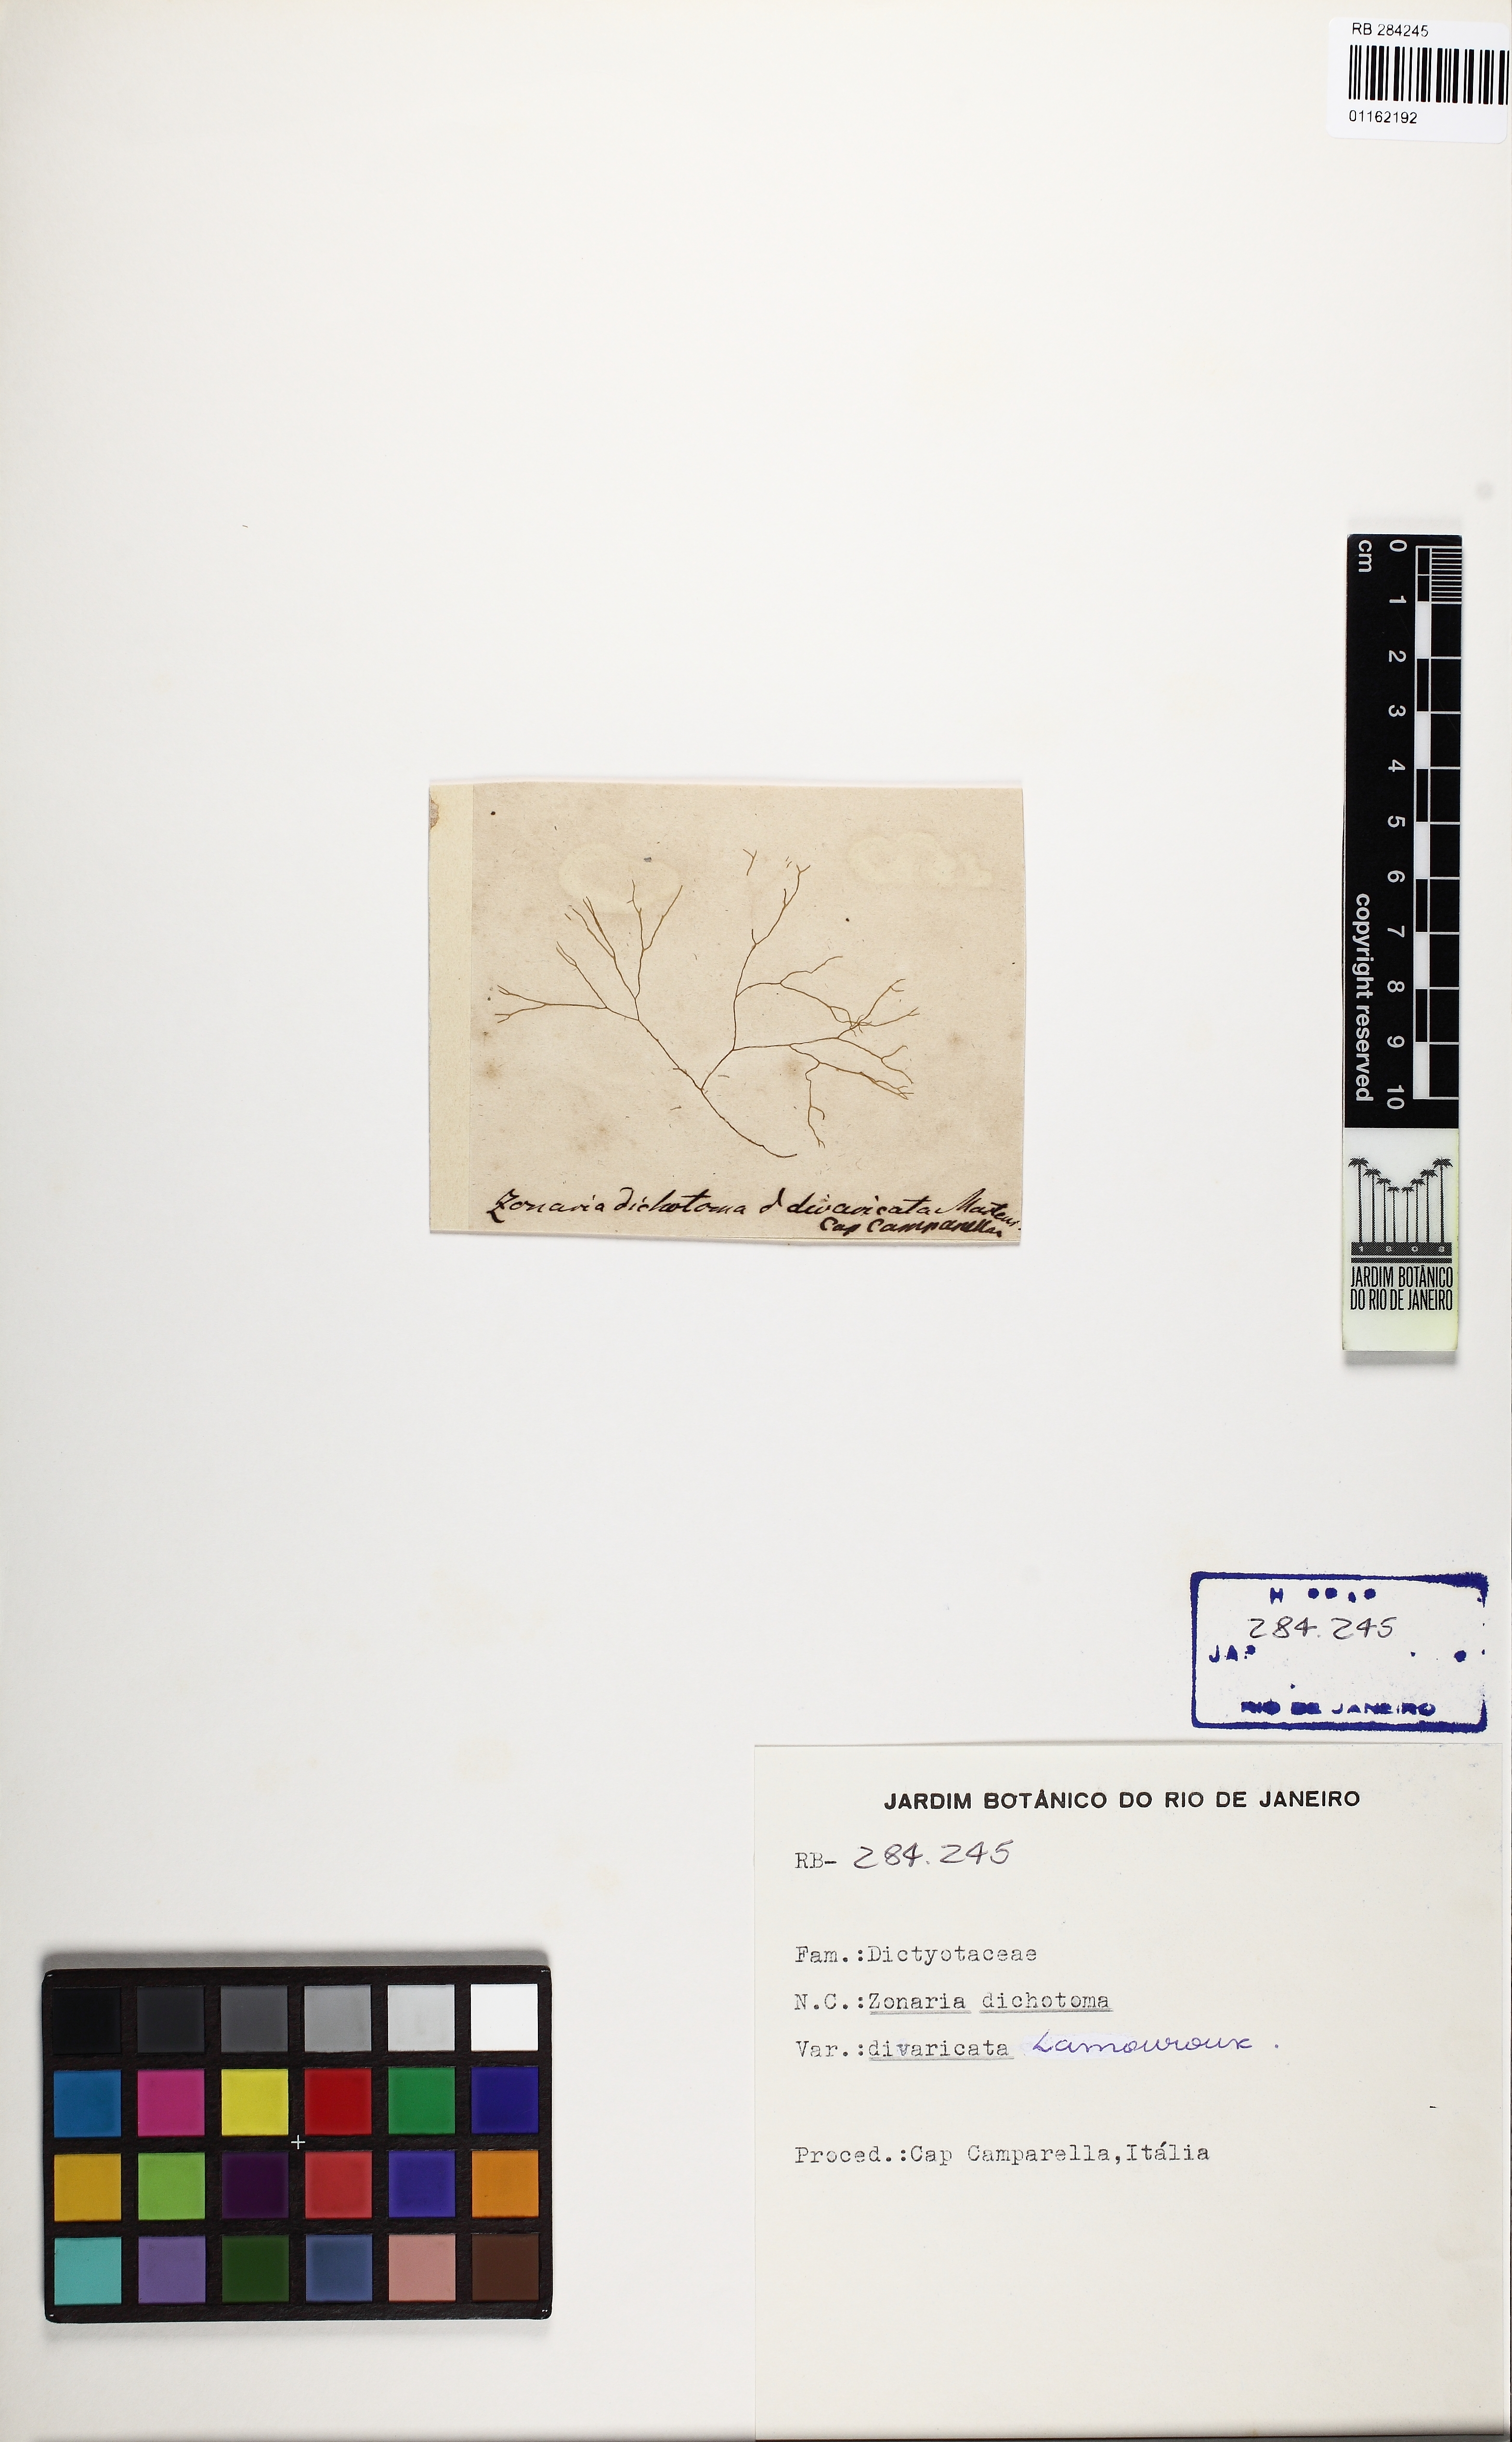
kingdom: Chromista
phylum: Ochrophyta
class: Phaeophyceae
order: Dictyotales
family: Dictyotaceae
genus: Dictyota
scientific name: Dictyota dichotoma
